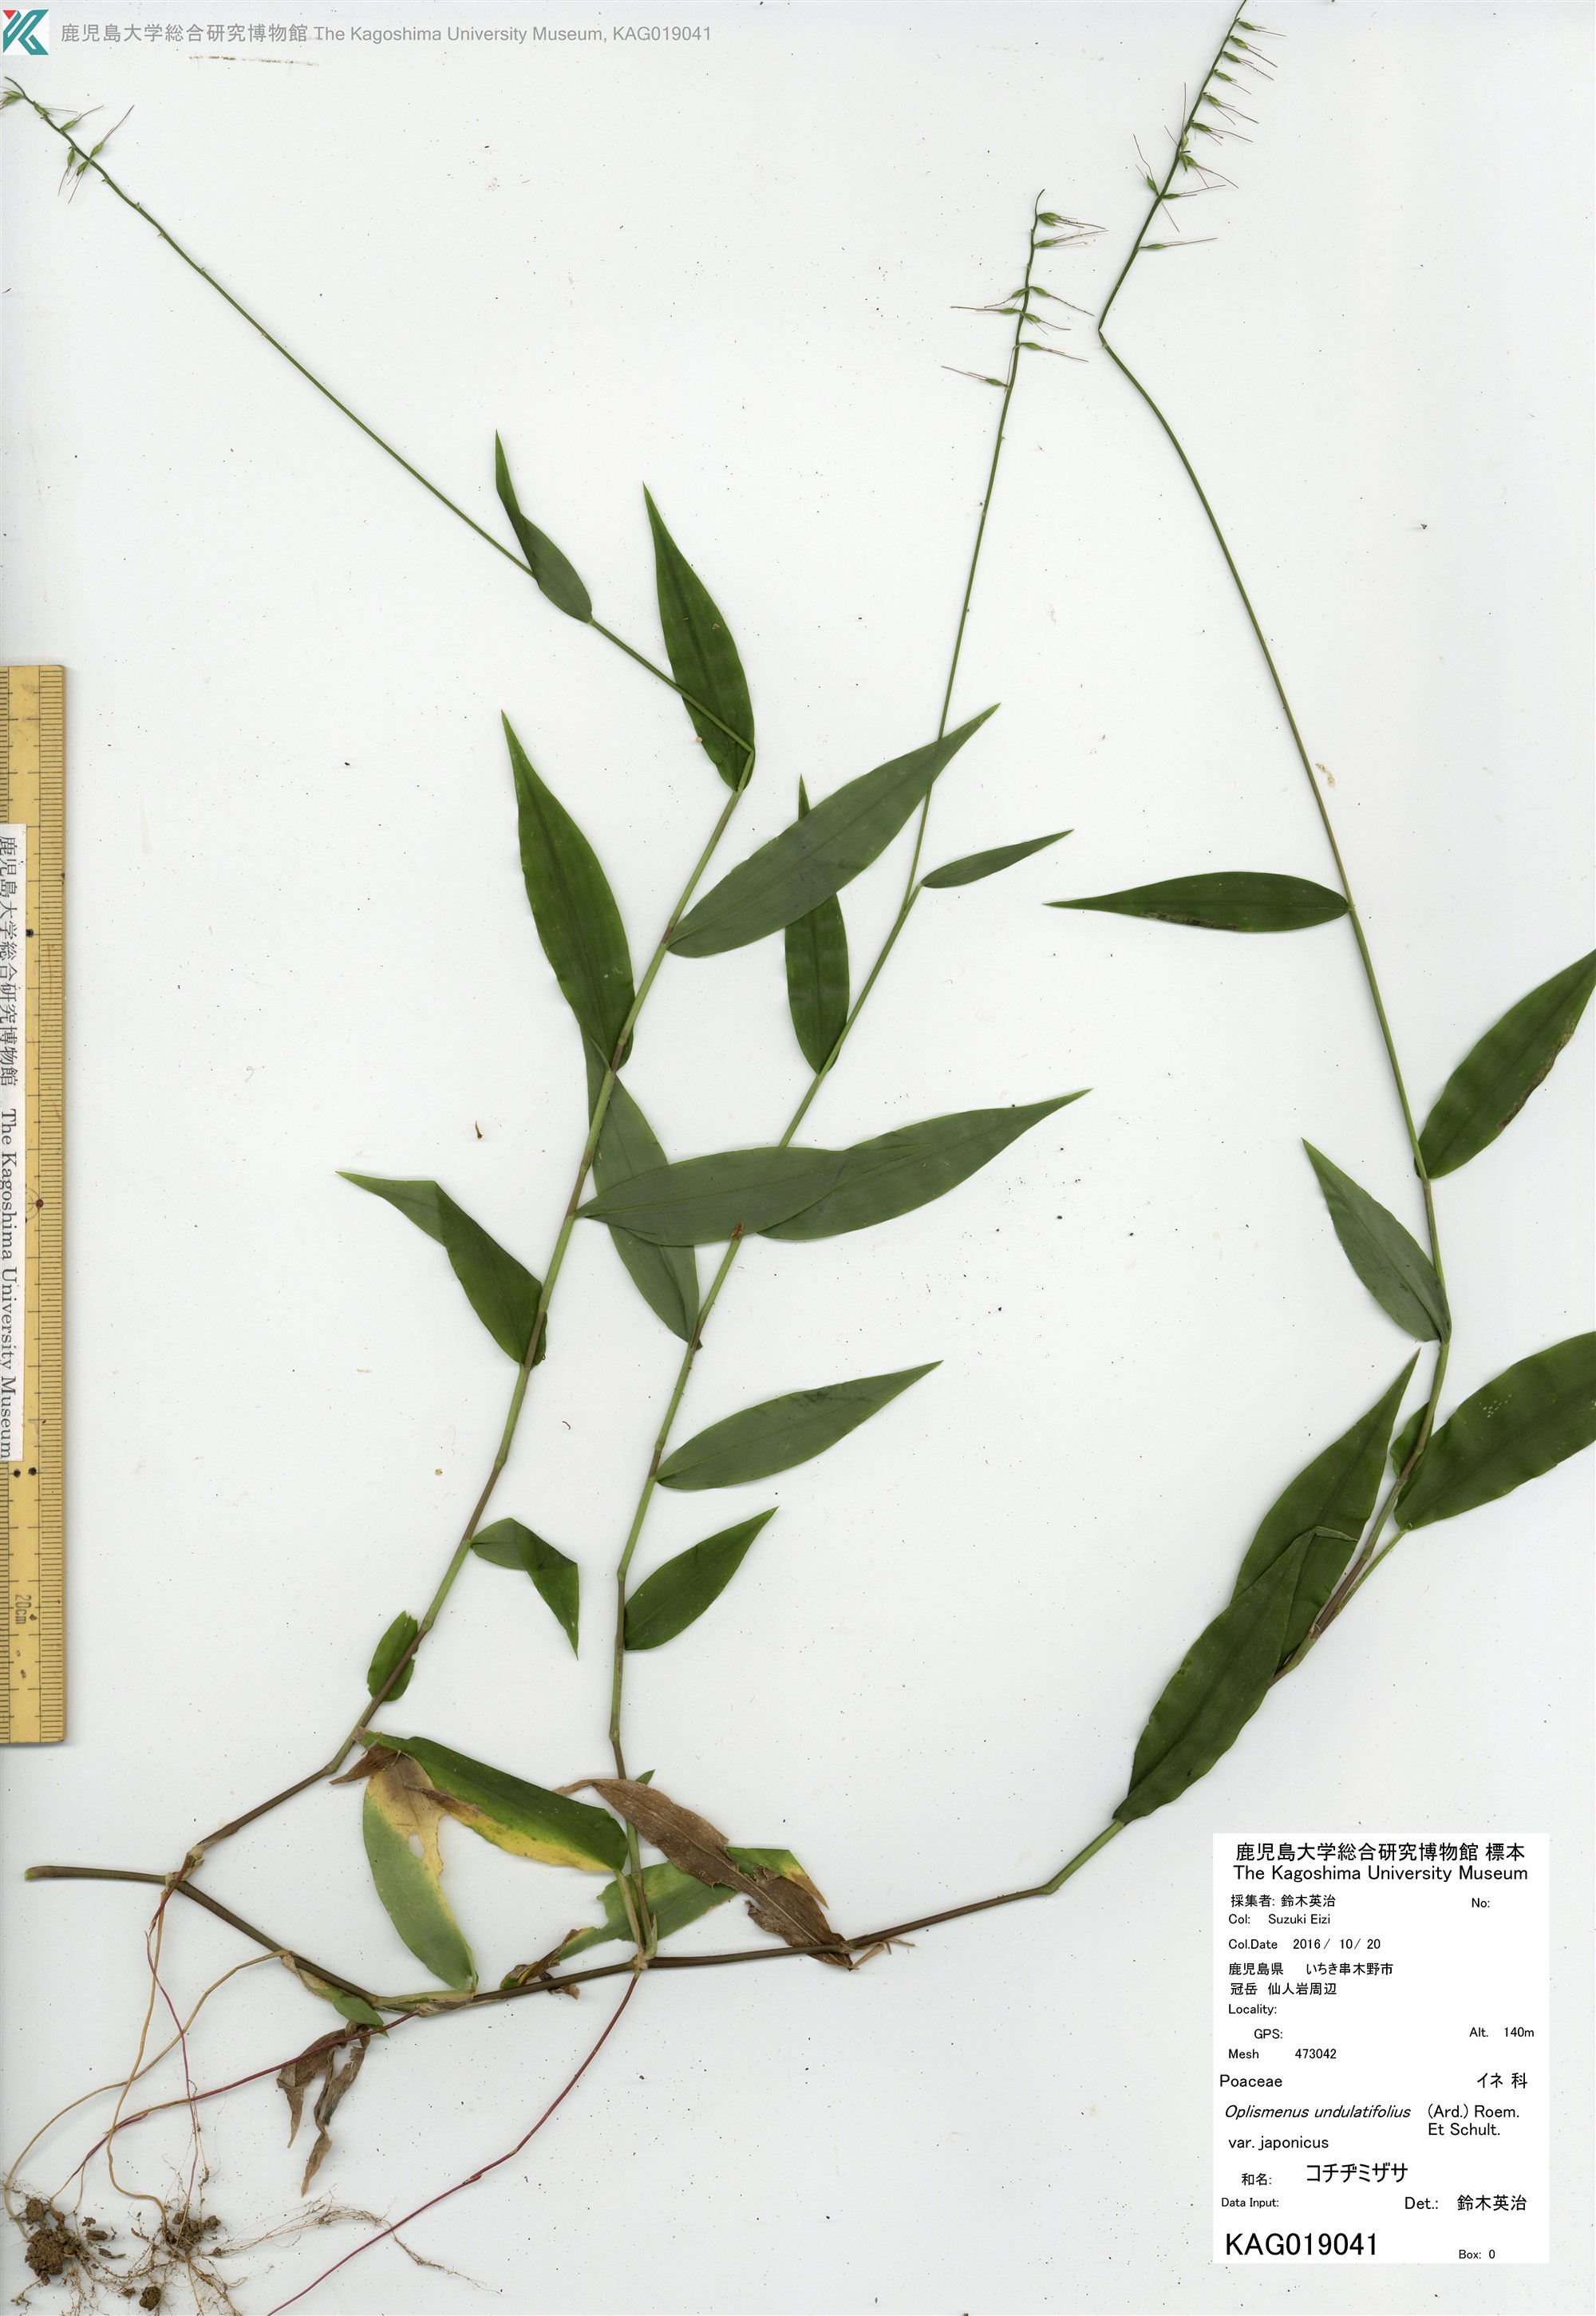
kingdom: Plantae
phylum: Tracheophyta
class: Liliopsida
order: Poales
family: Poaceae
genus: Oplismenus
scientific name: Oplismenus undulatifolius
